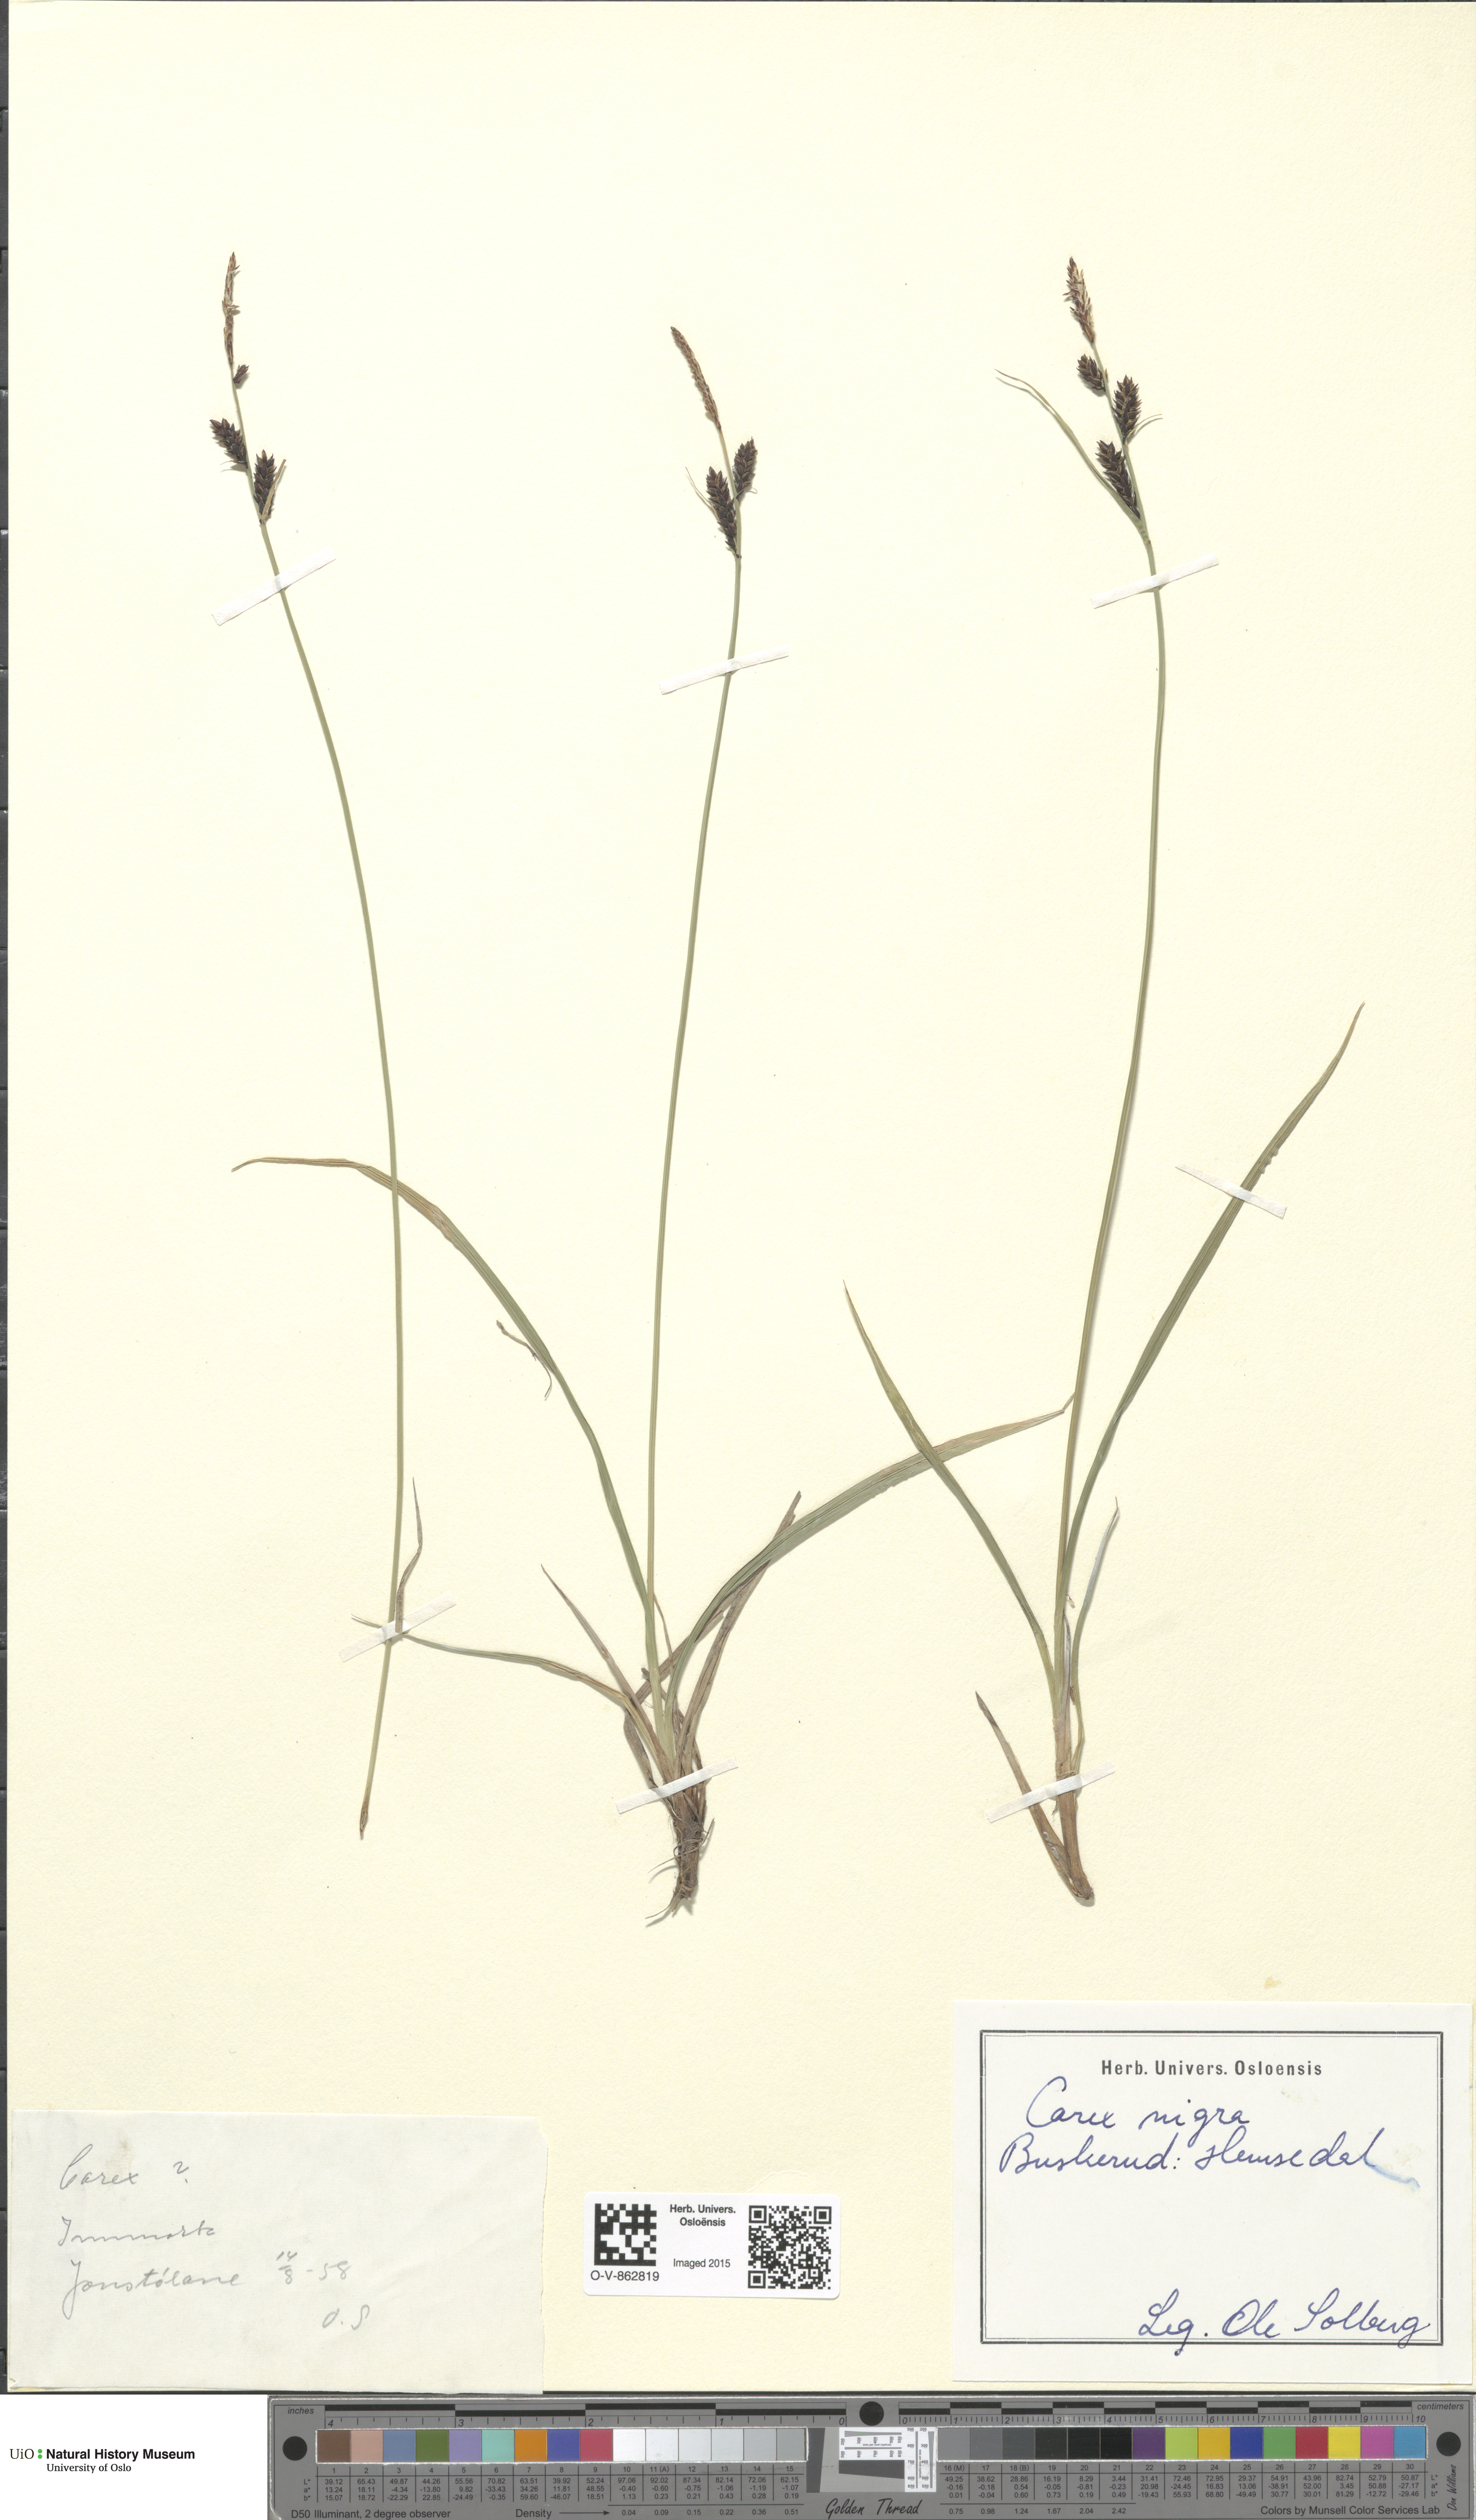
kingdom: Plantae
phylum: Tracheophyta
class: Liliopsida
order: Poales
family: Cyperaceae
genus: Carex
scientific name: Carex nigra
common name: Common sedge
